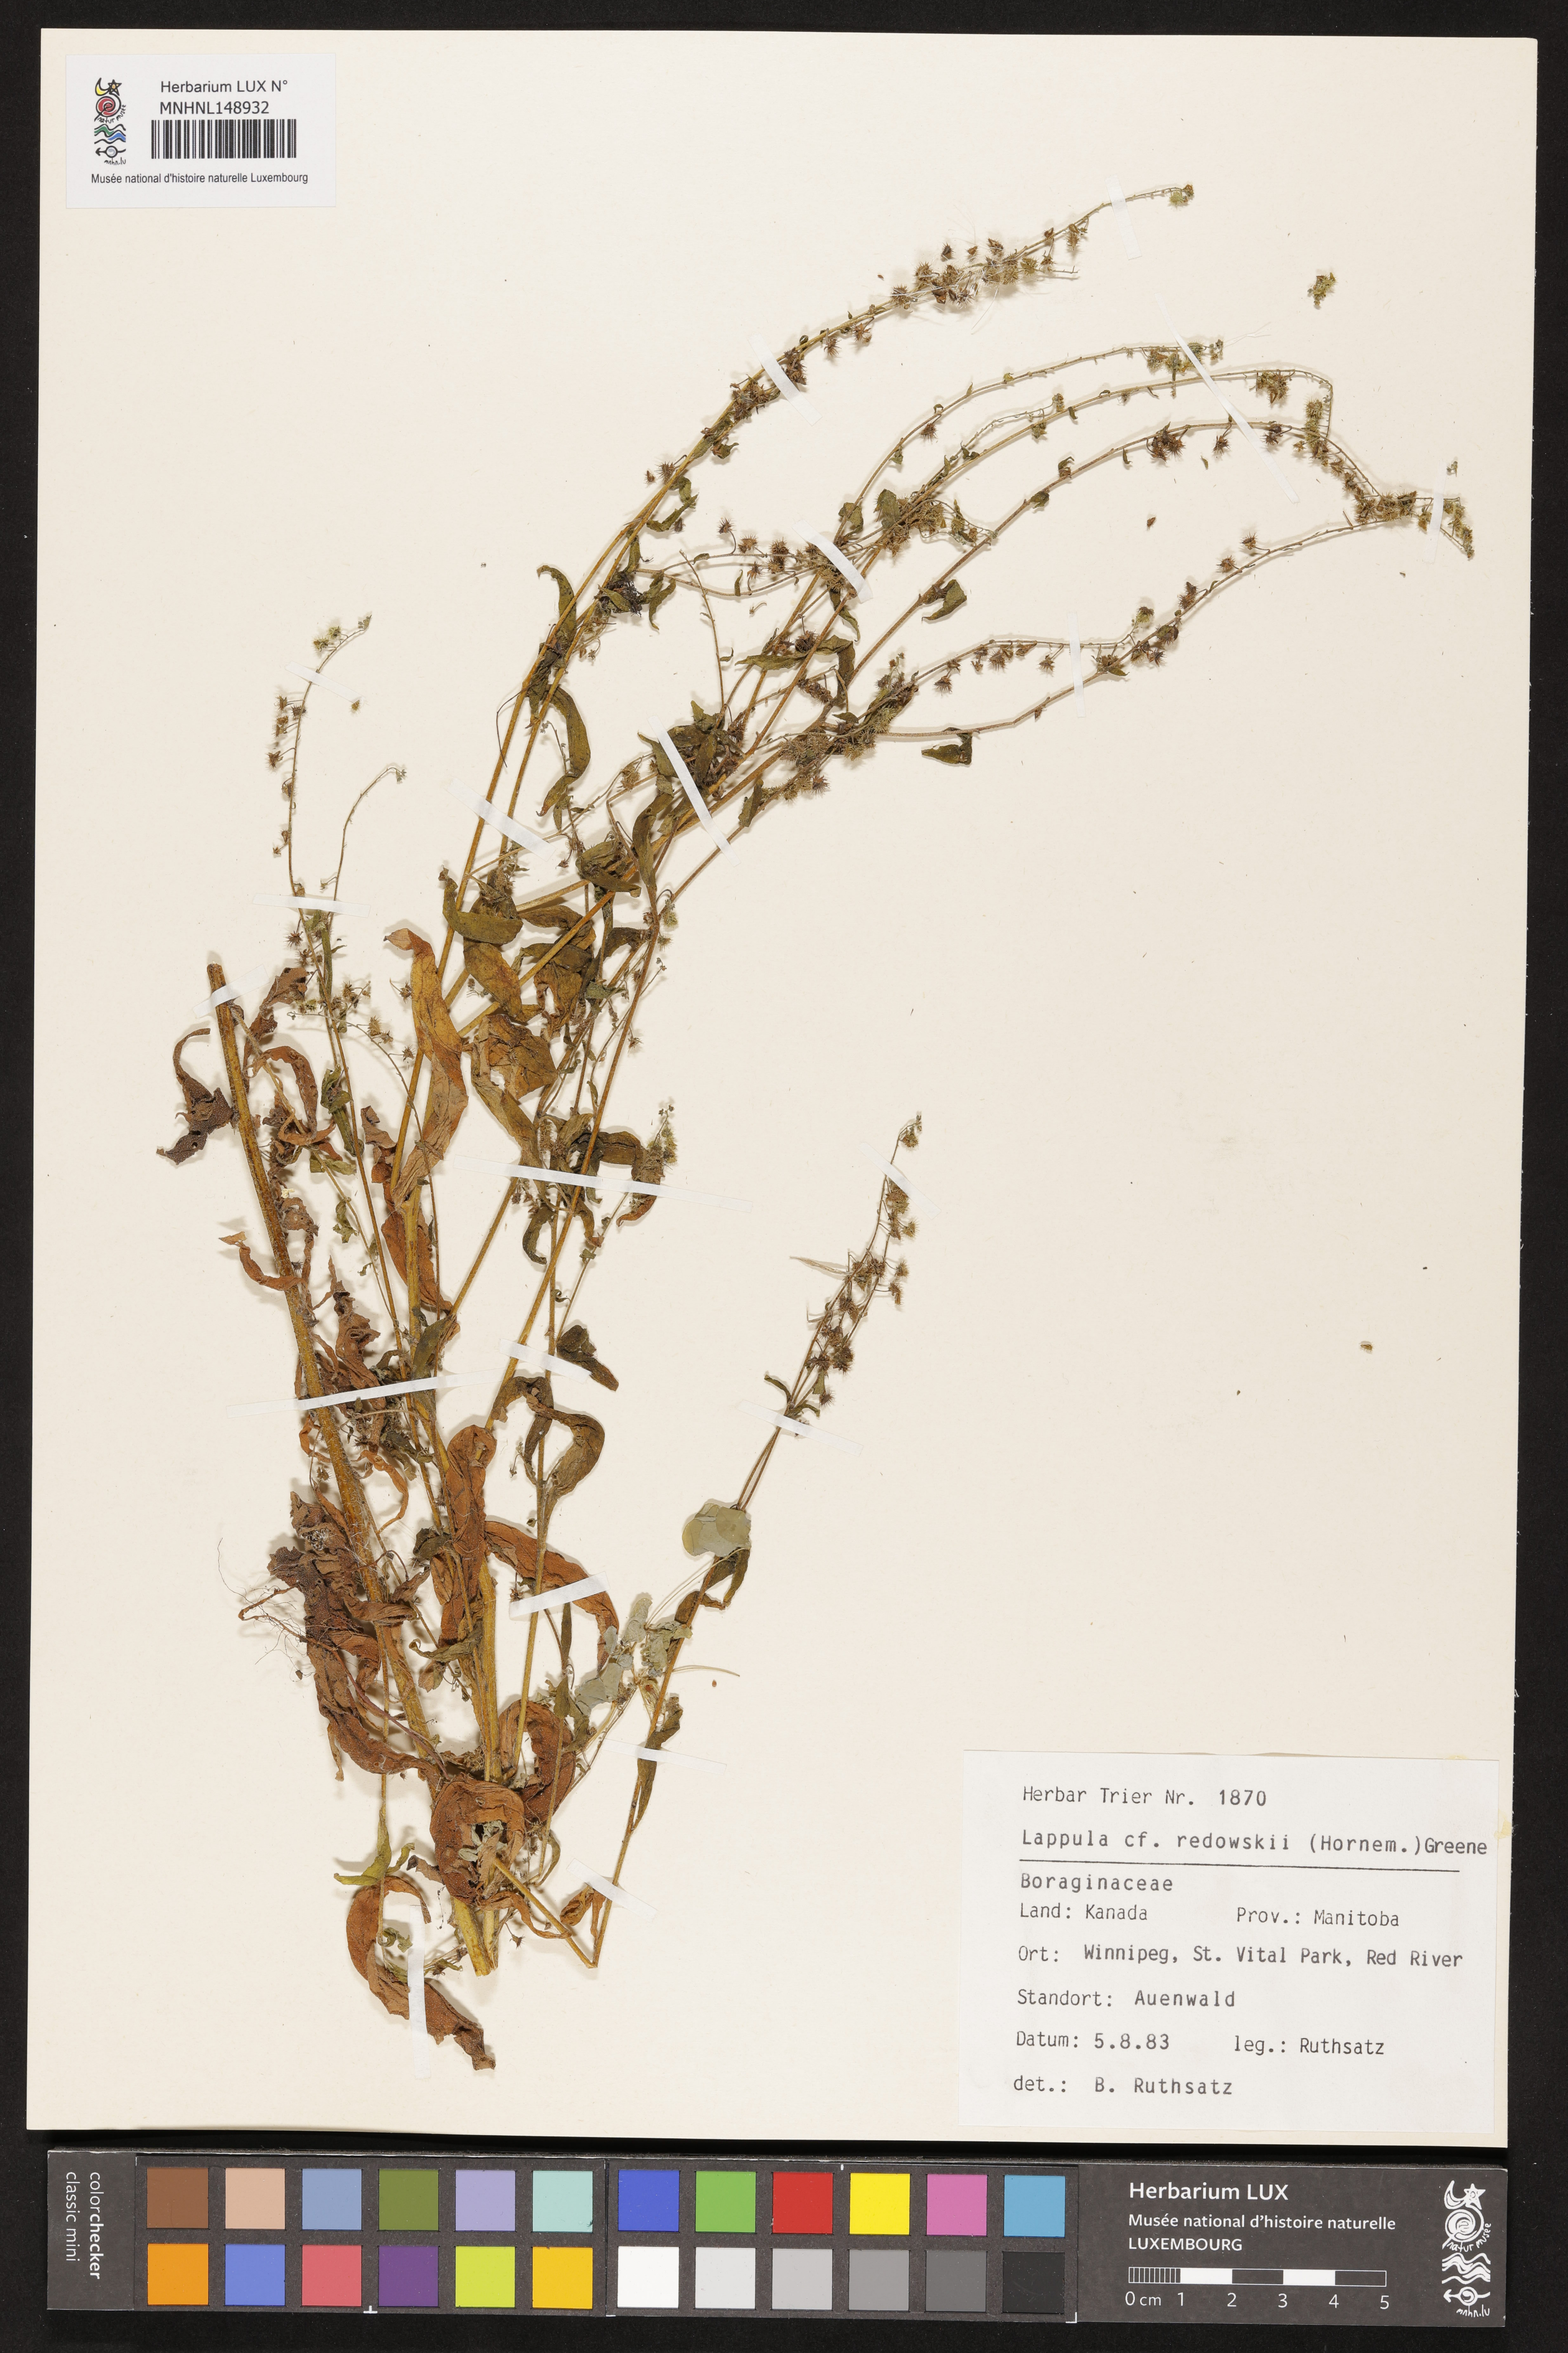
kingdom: Plantae
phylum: Tracheophyta
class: Magnoliopsida
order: Boraginales
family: Boraginaceae
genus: Lappula
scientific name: Lappula redowskii
